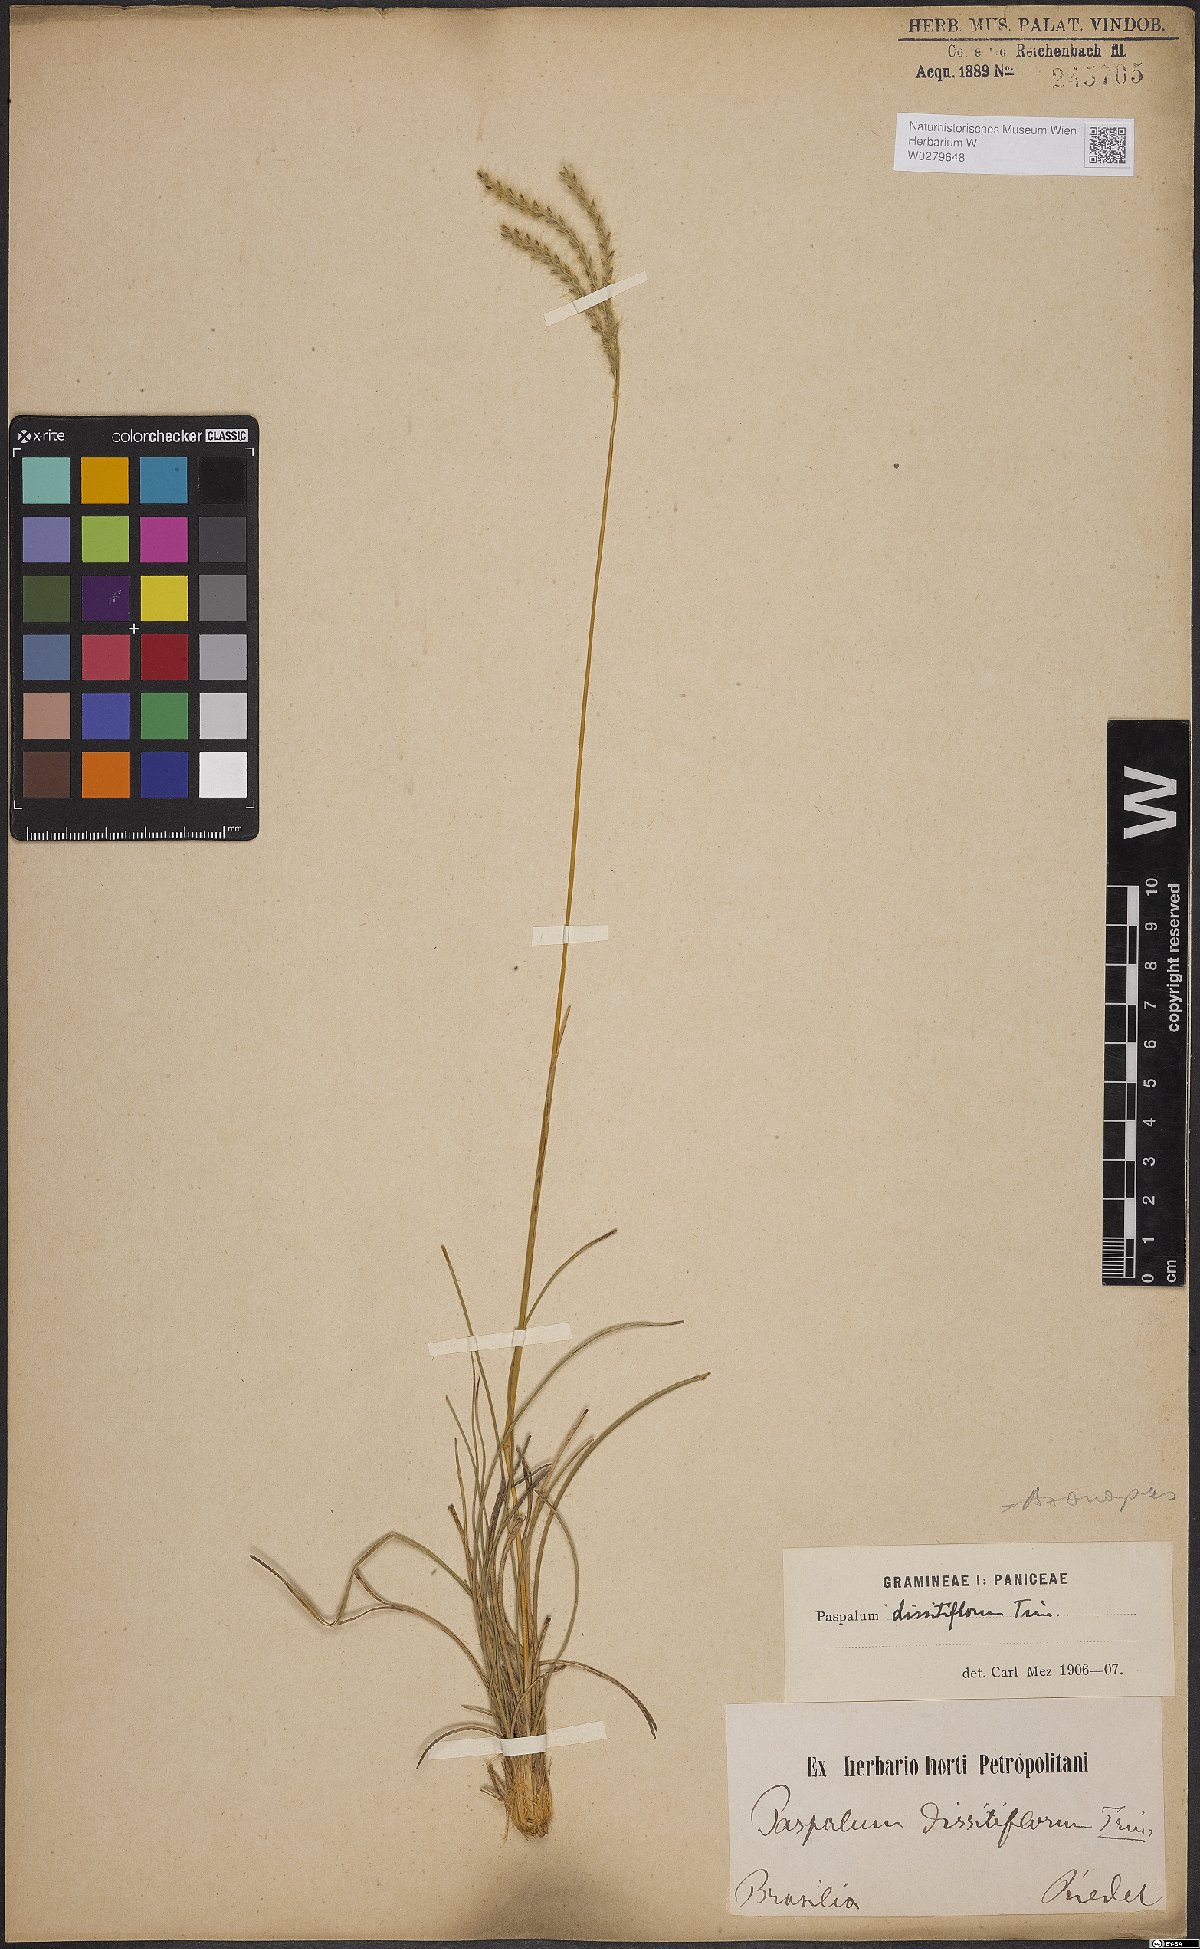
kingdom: Plantae
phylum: Tracheophyta
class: Liliopsida
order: Poales
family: Poaceae
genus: Axonopus
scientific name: Axonopus brasiliensis
